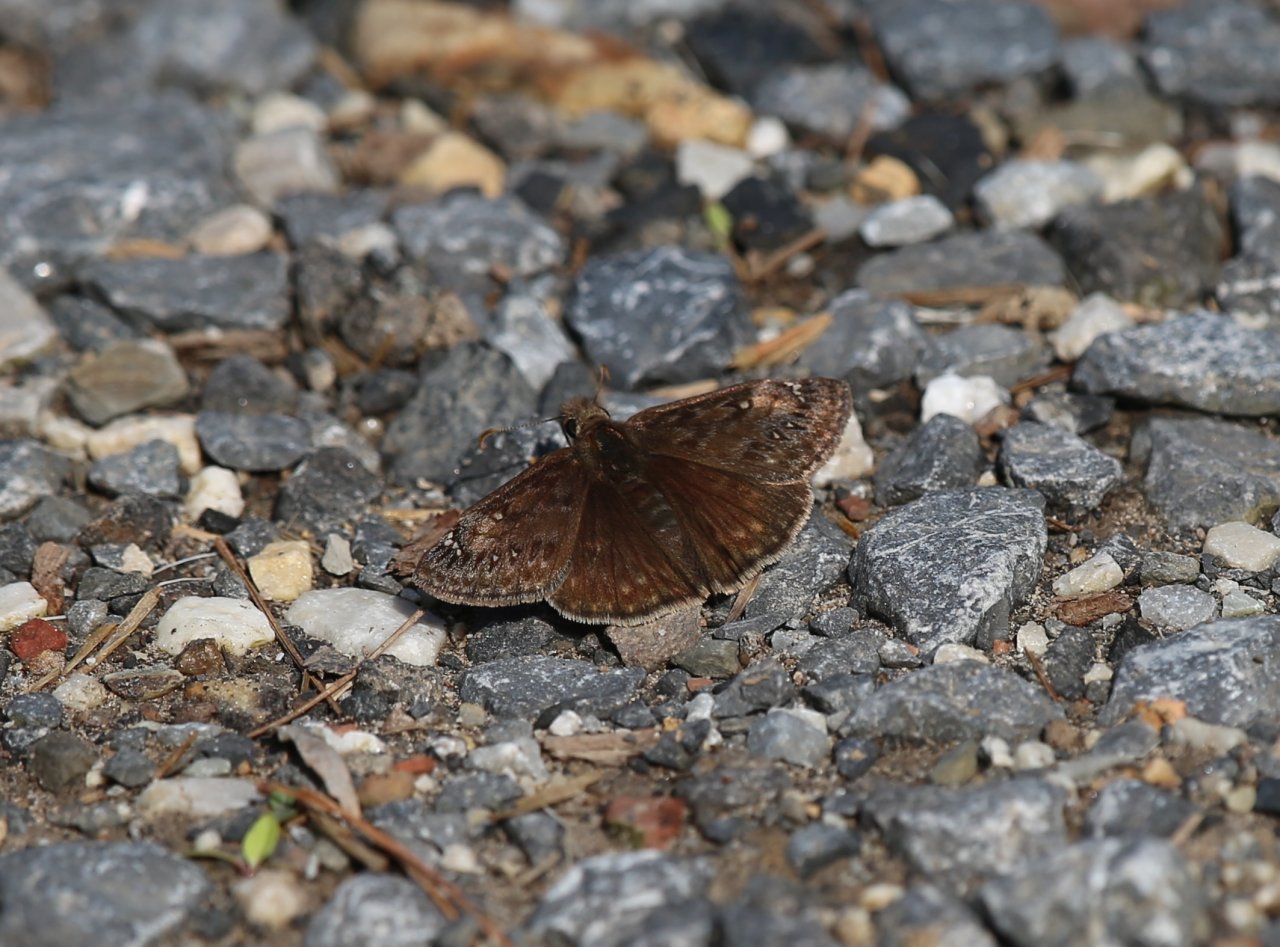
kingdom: Animalia
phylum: Arthropoda
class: Insecta
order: Lepidoptera
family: Hesperiidae
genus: Gesta
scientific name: Gesta
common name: Juvenal's Duskywing
